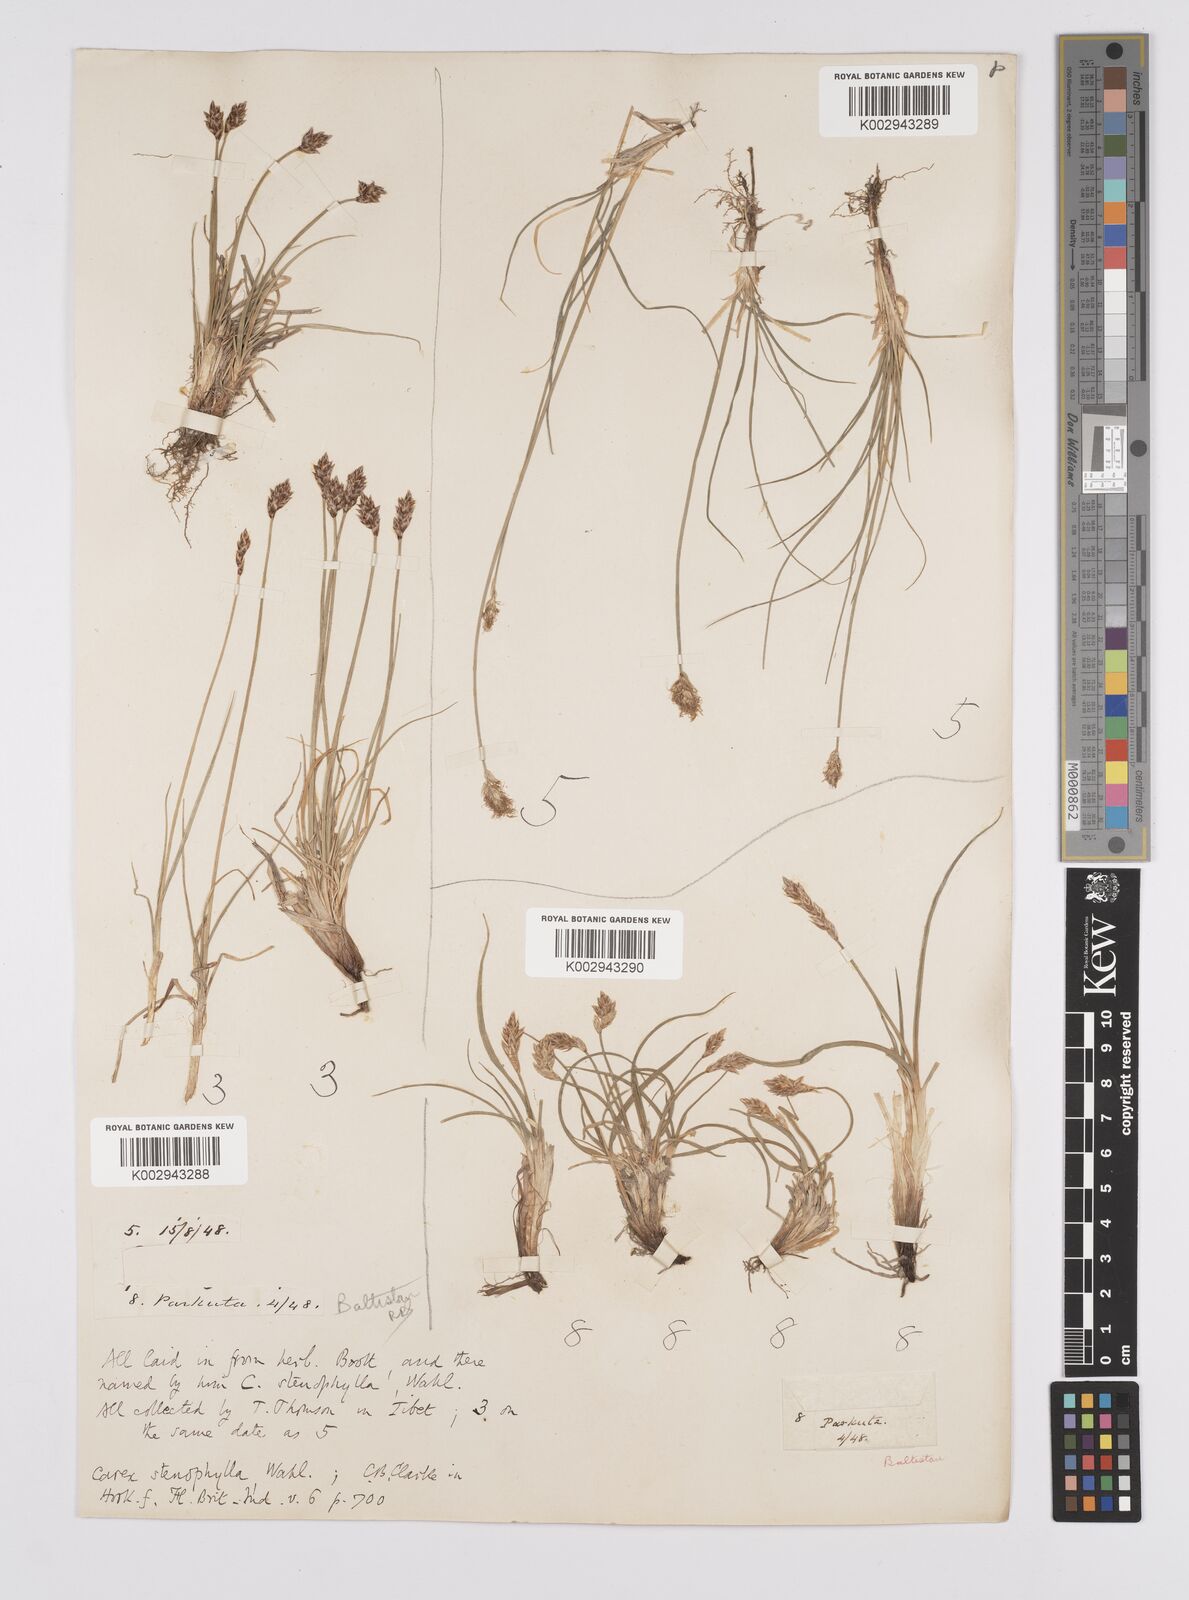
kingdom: Plantae
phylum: Tracheophyta
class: Liliopsida
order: Poales
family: Cyperaceae
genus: Carex
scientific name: Carex stenophylla
